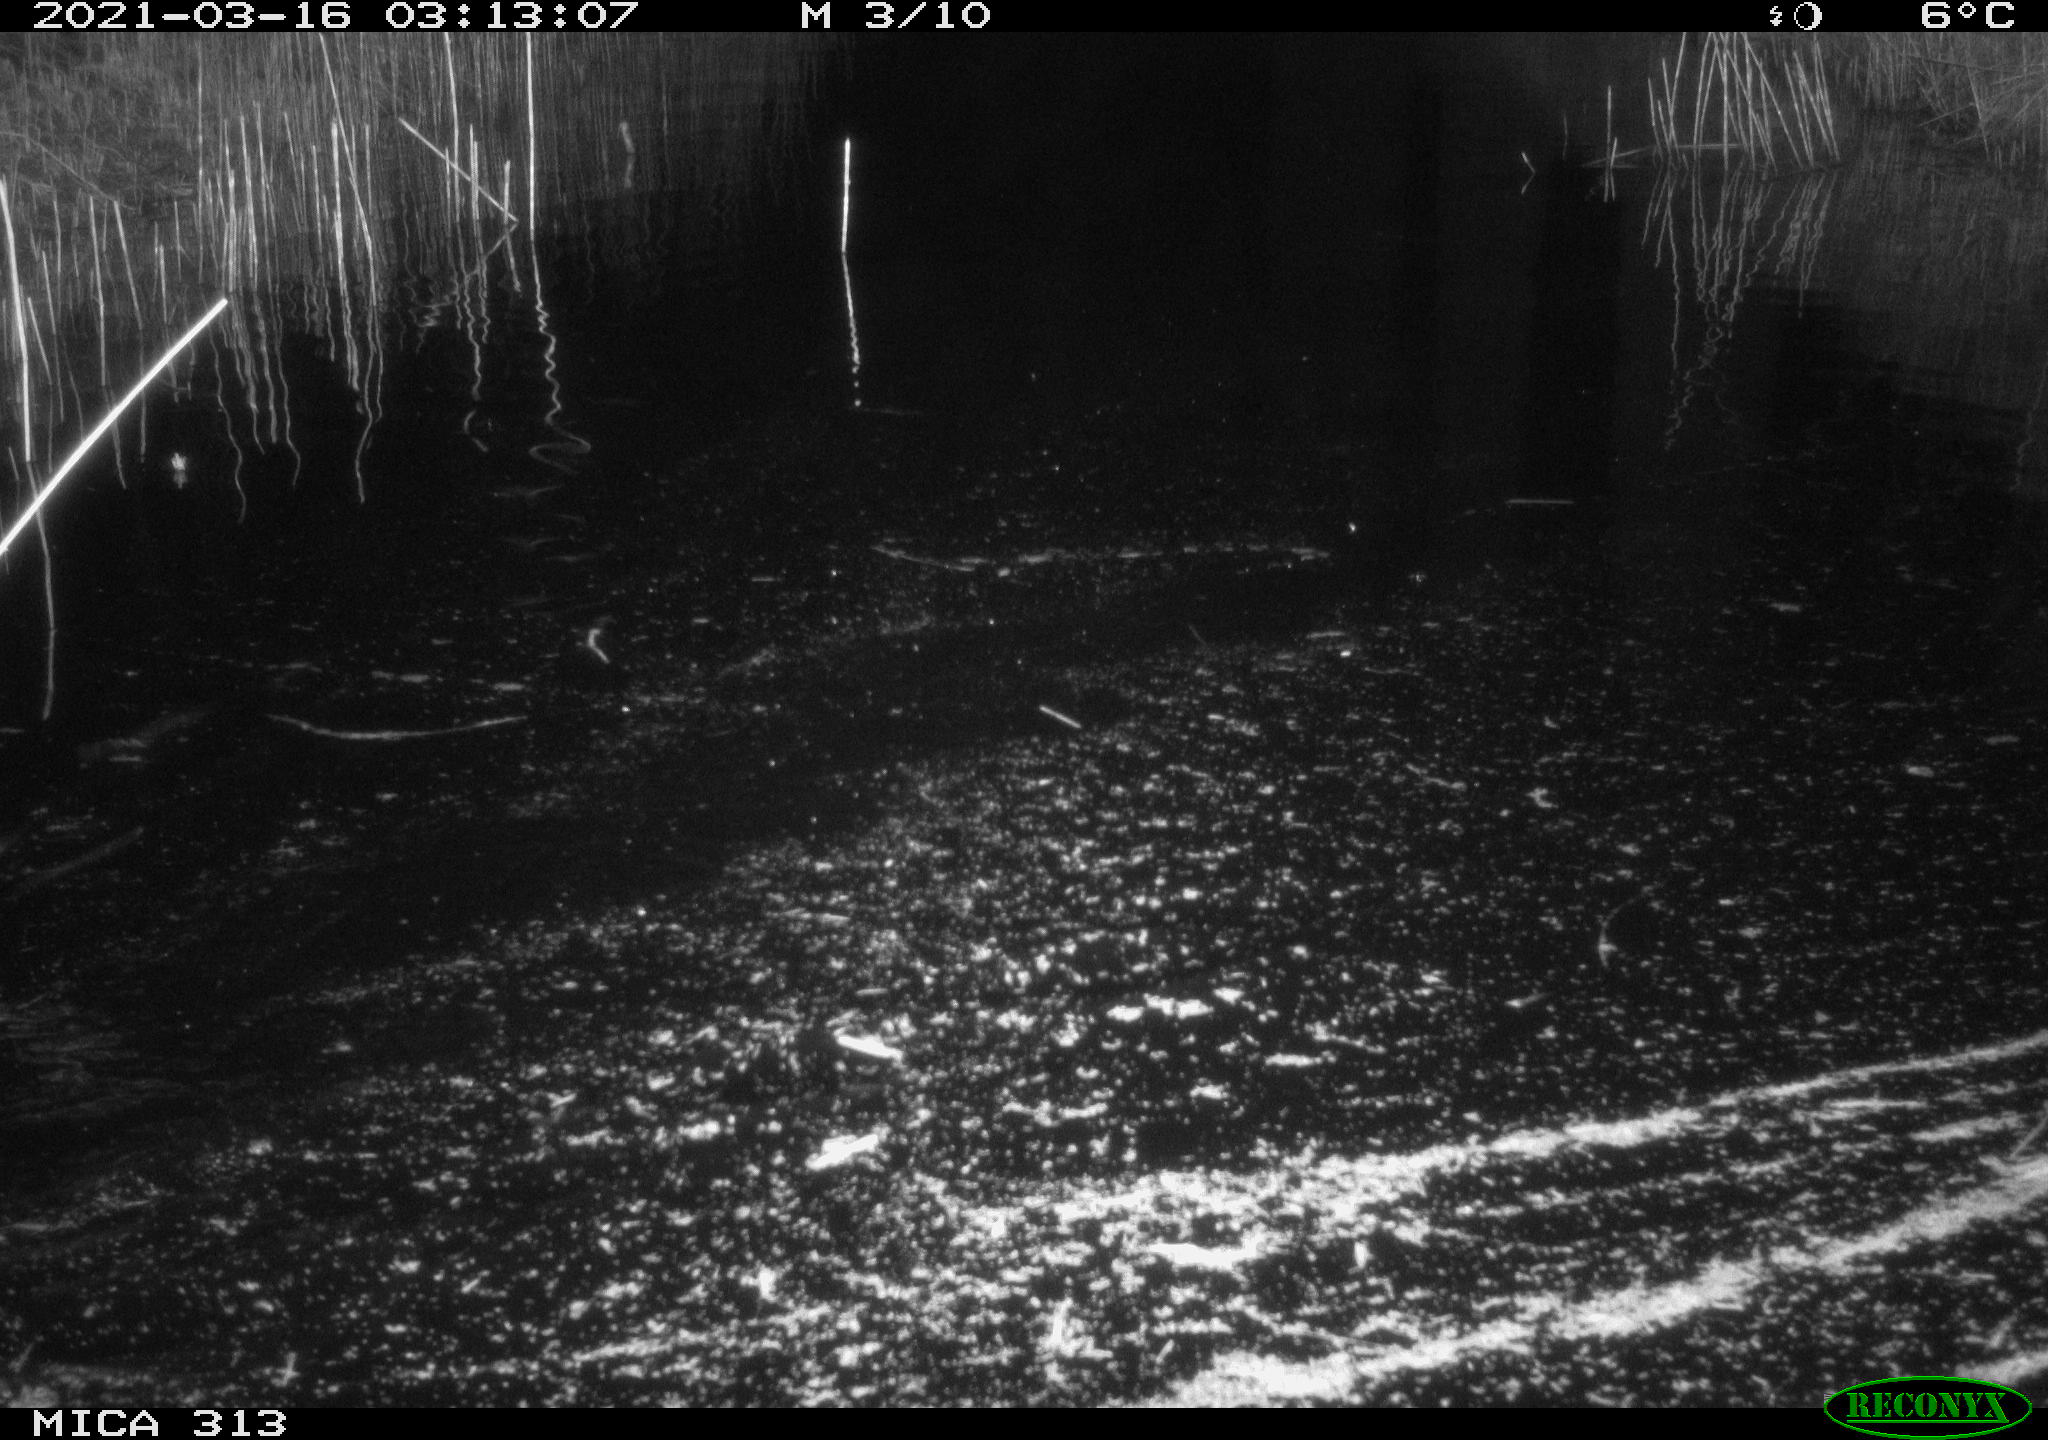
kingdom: Animalia
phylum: Chordata
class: Mammalia
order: Rodentia
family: Cricetidae
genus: Ondatra
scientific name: Ondatra zibethicus
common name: Muskrat
